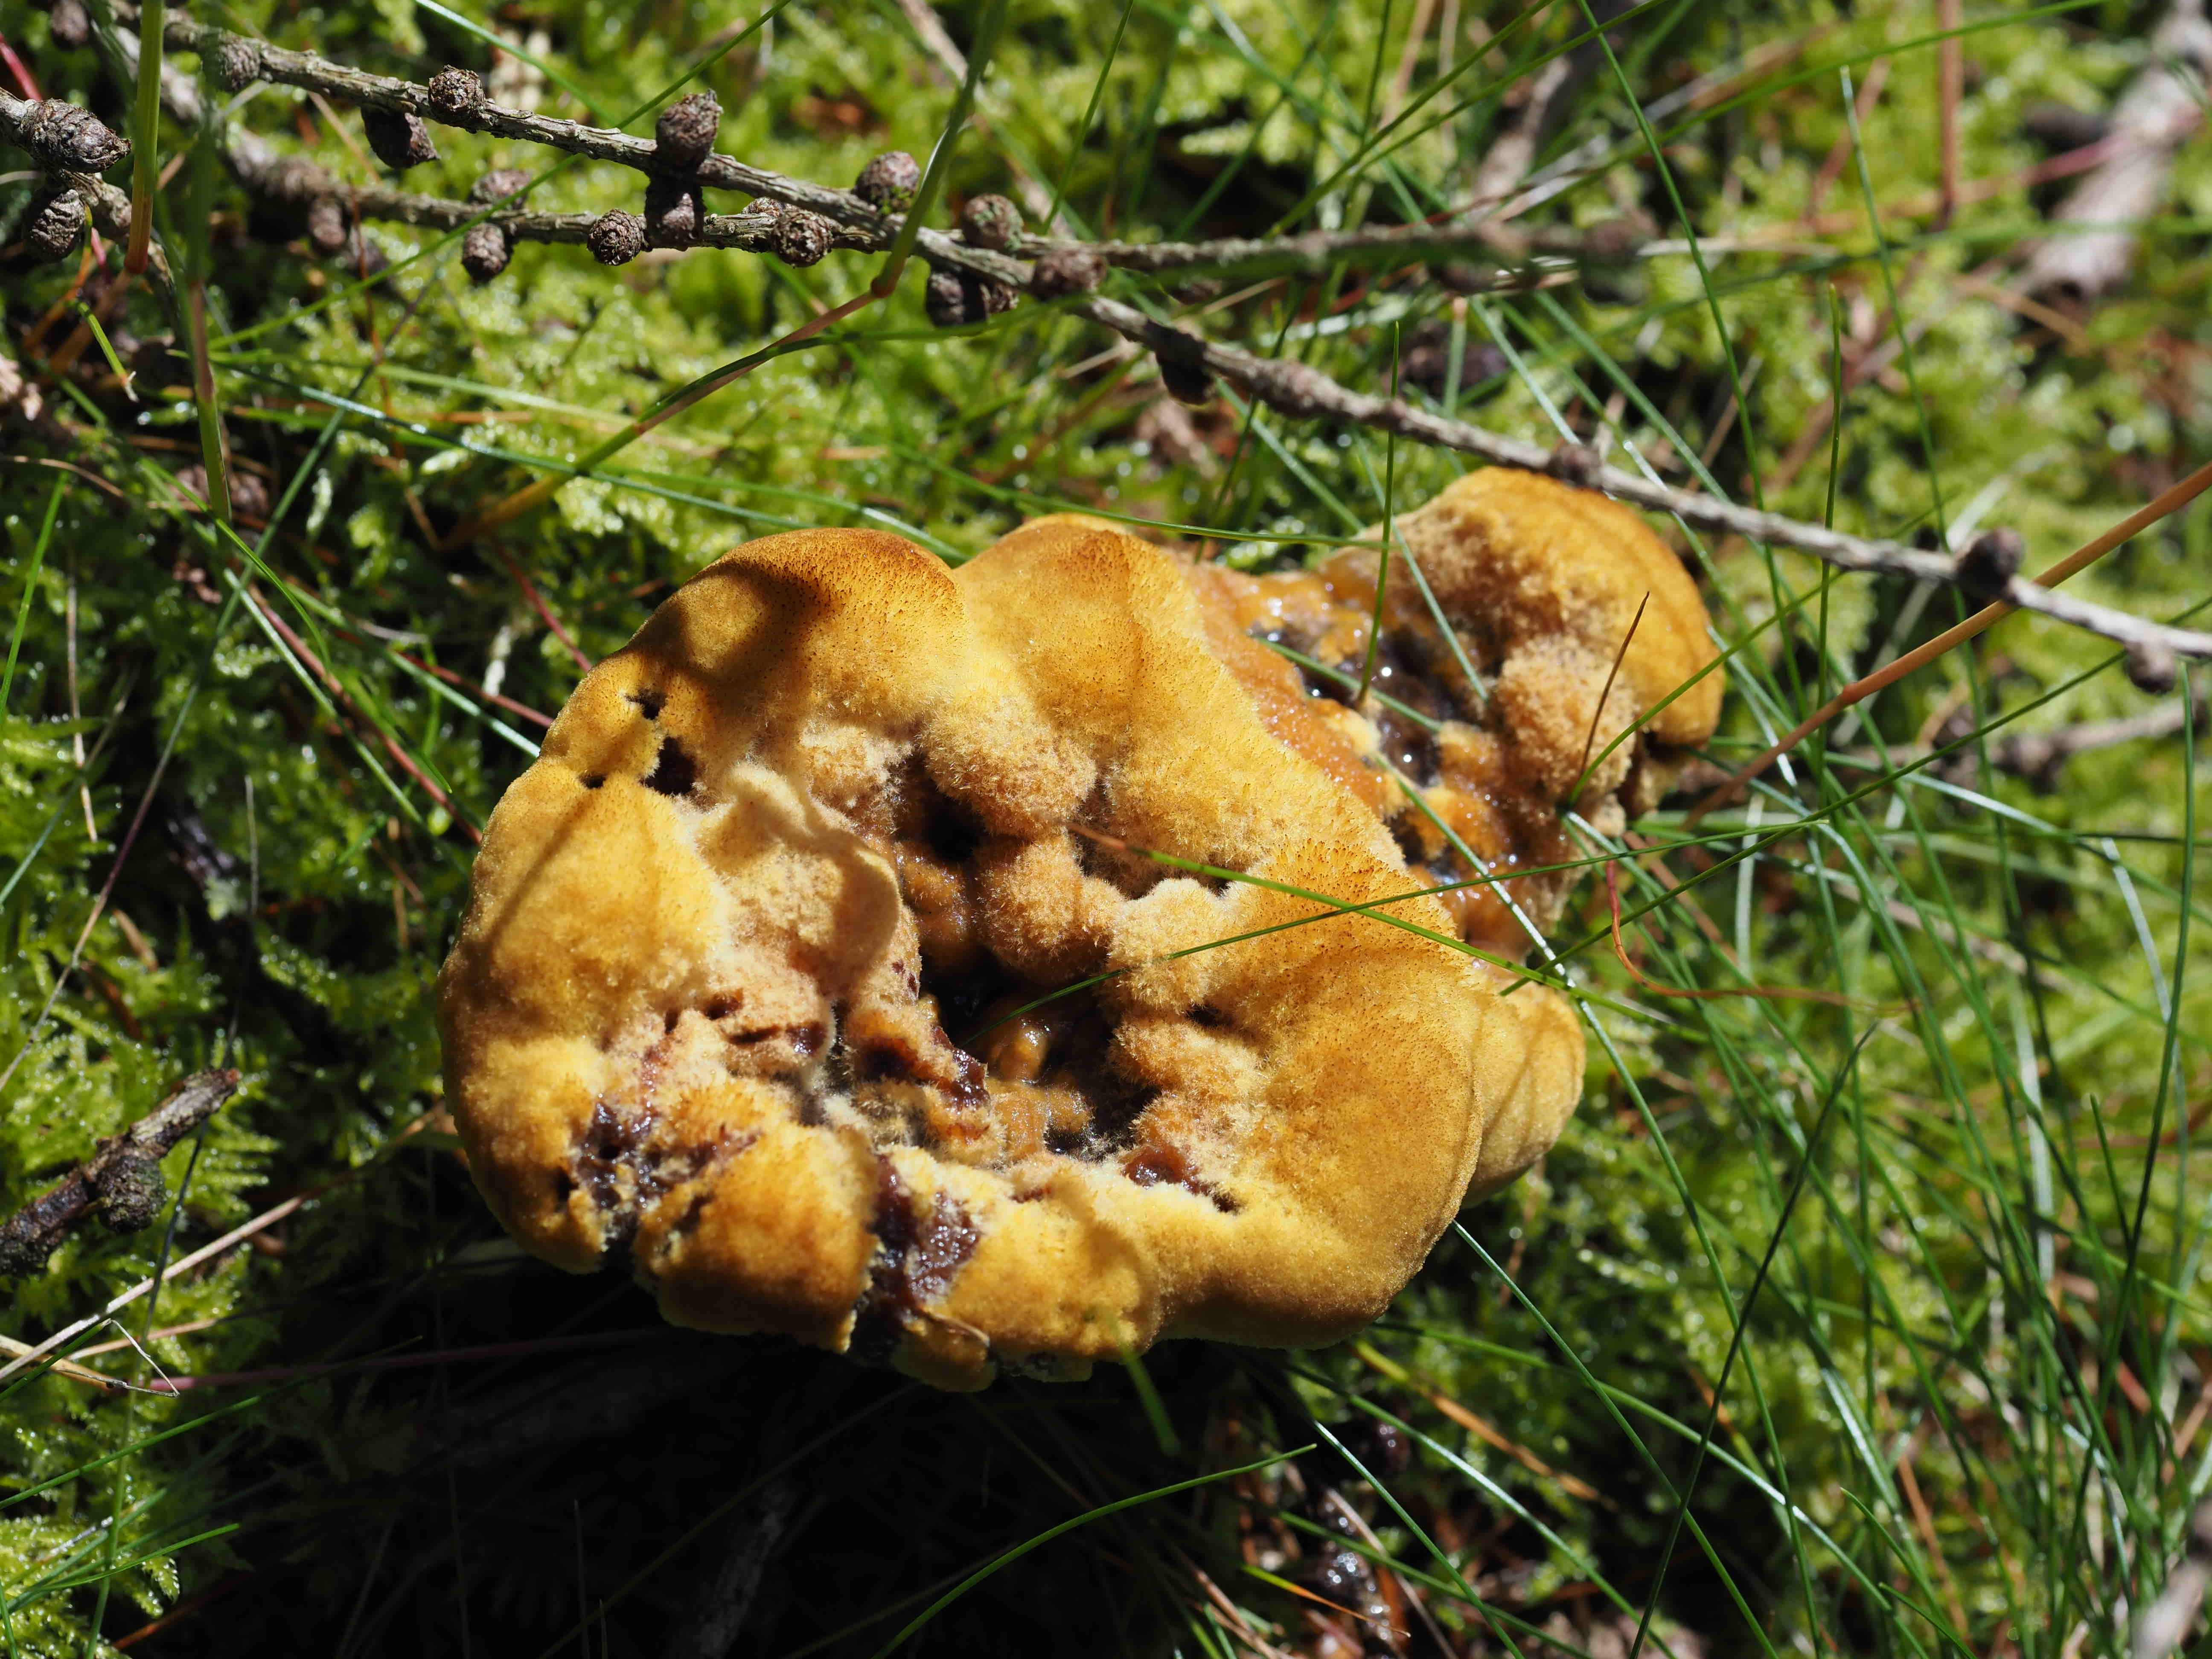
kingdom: Fungi
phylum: Basidiomycota
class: Agaricomycetes
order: Polyporales
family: Laetiporaceae
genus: Phaeolus
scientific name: Phaeolus schweinitzii
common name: brunporesvamp
